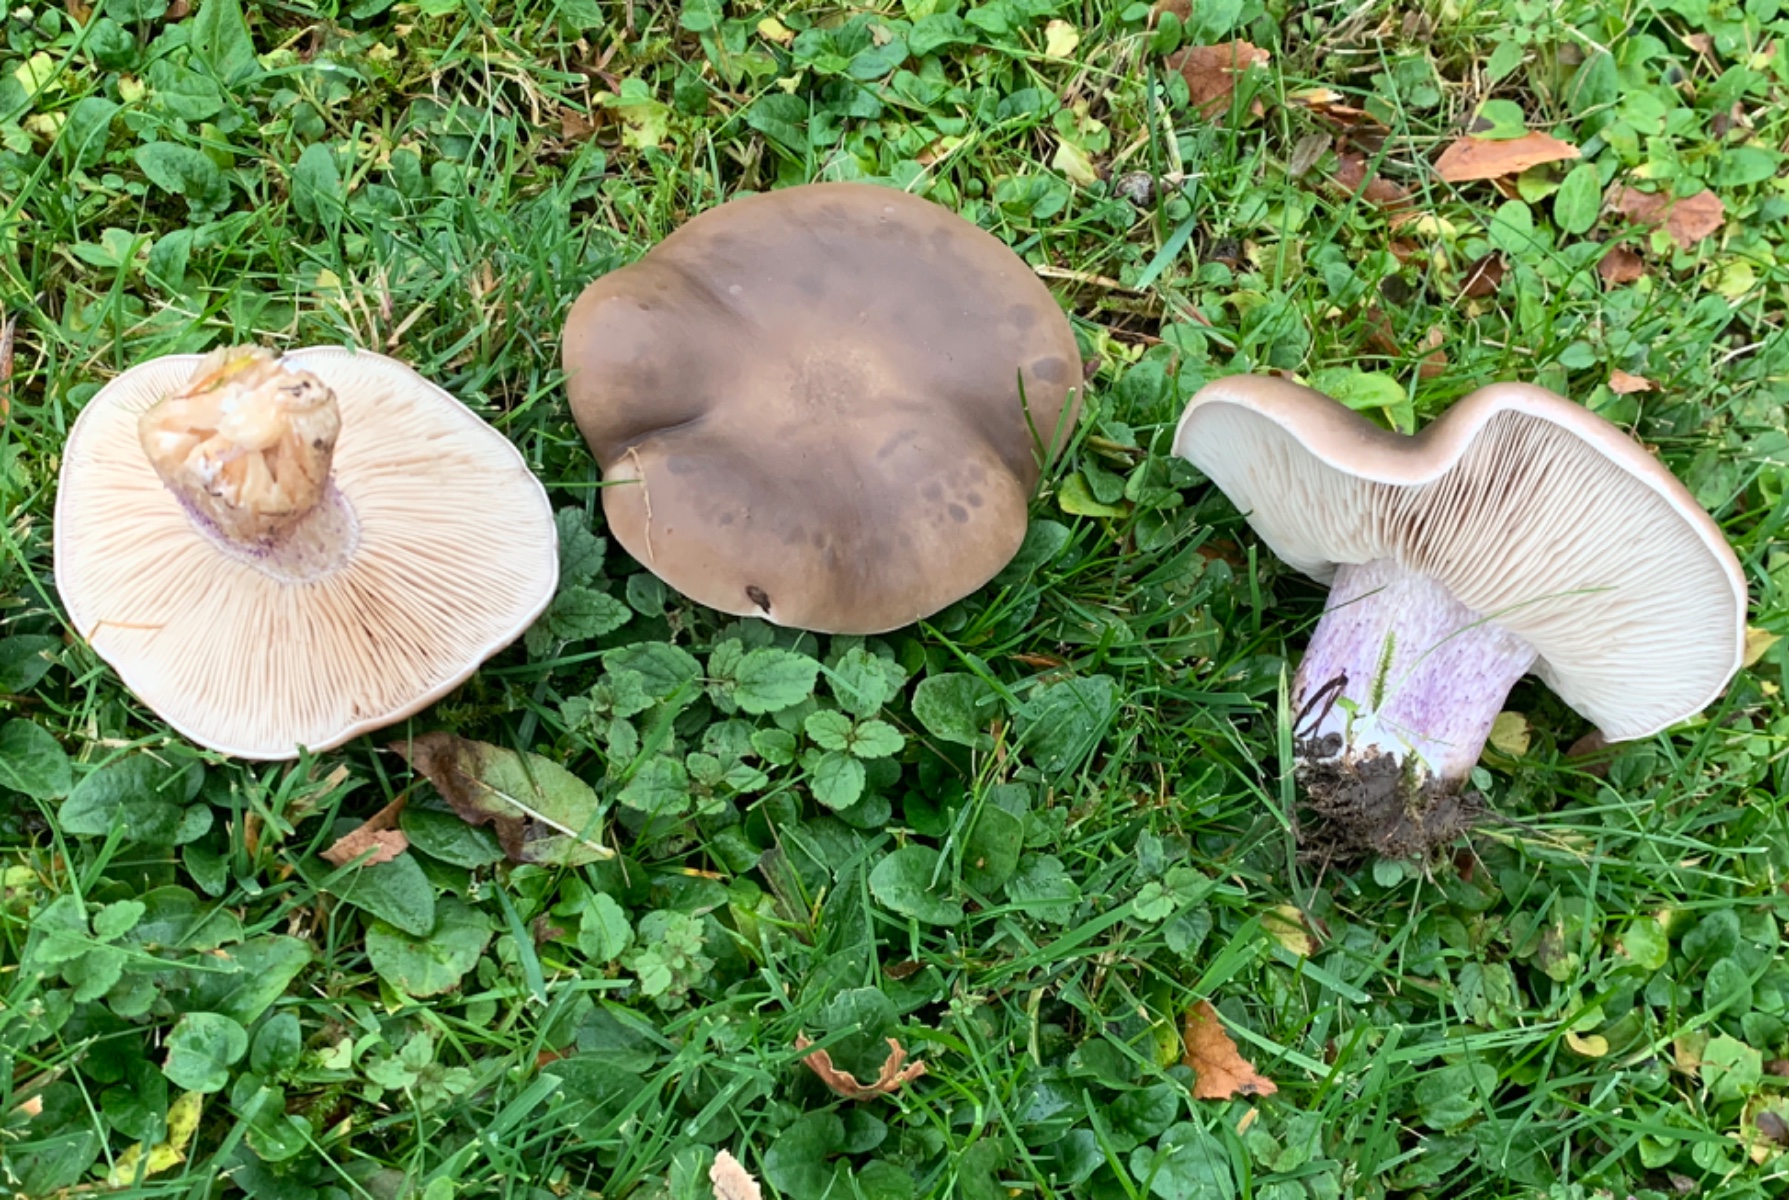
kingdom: Fungi
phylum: Basidiomycota
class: Agaricomycetes
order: Agaricales
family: Tricholomataceae
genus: Lepista
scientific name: Lepista personata
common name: bleg hekseringshat
